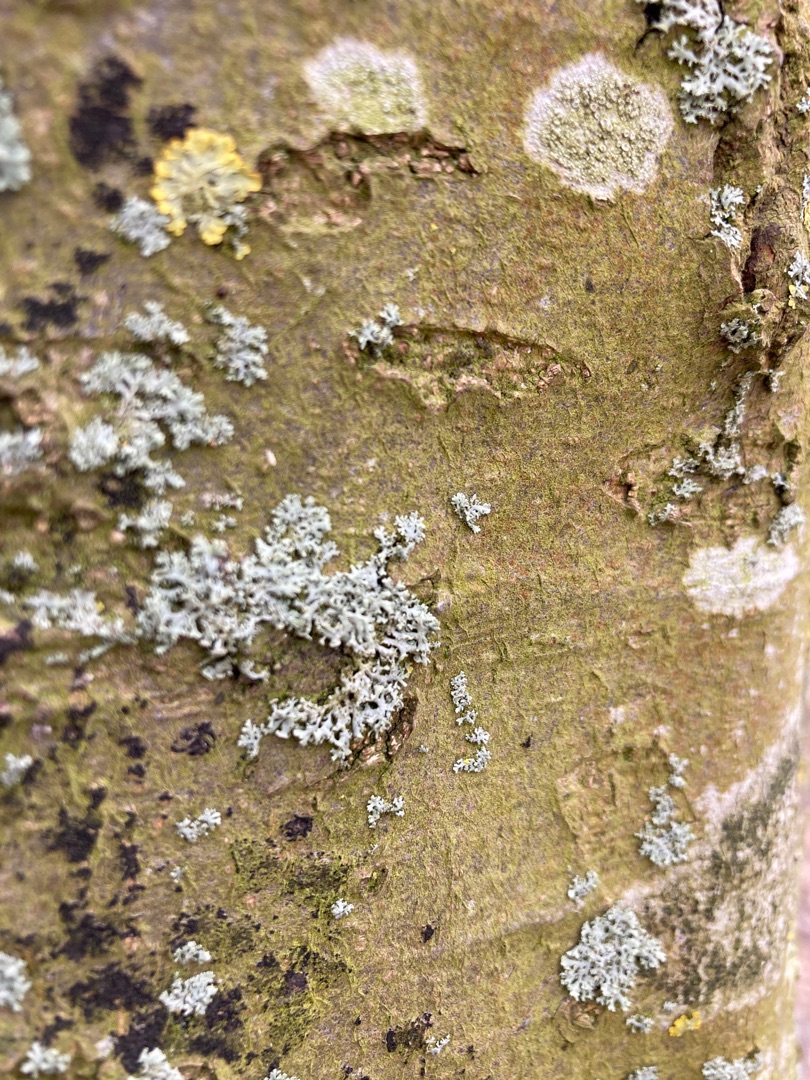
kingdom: Fungi
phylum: Ascomycota
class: Lecanoromycetes
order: Caliciales
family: Physciaceae
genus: Physcia
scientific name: Physcia tenella
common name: Spæd rosetlav
